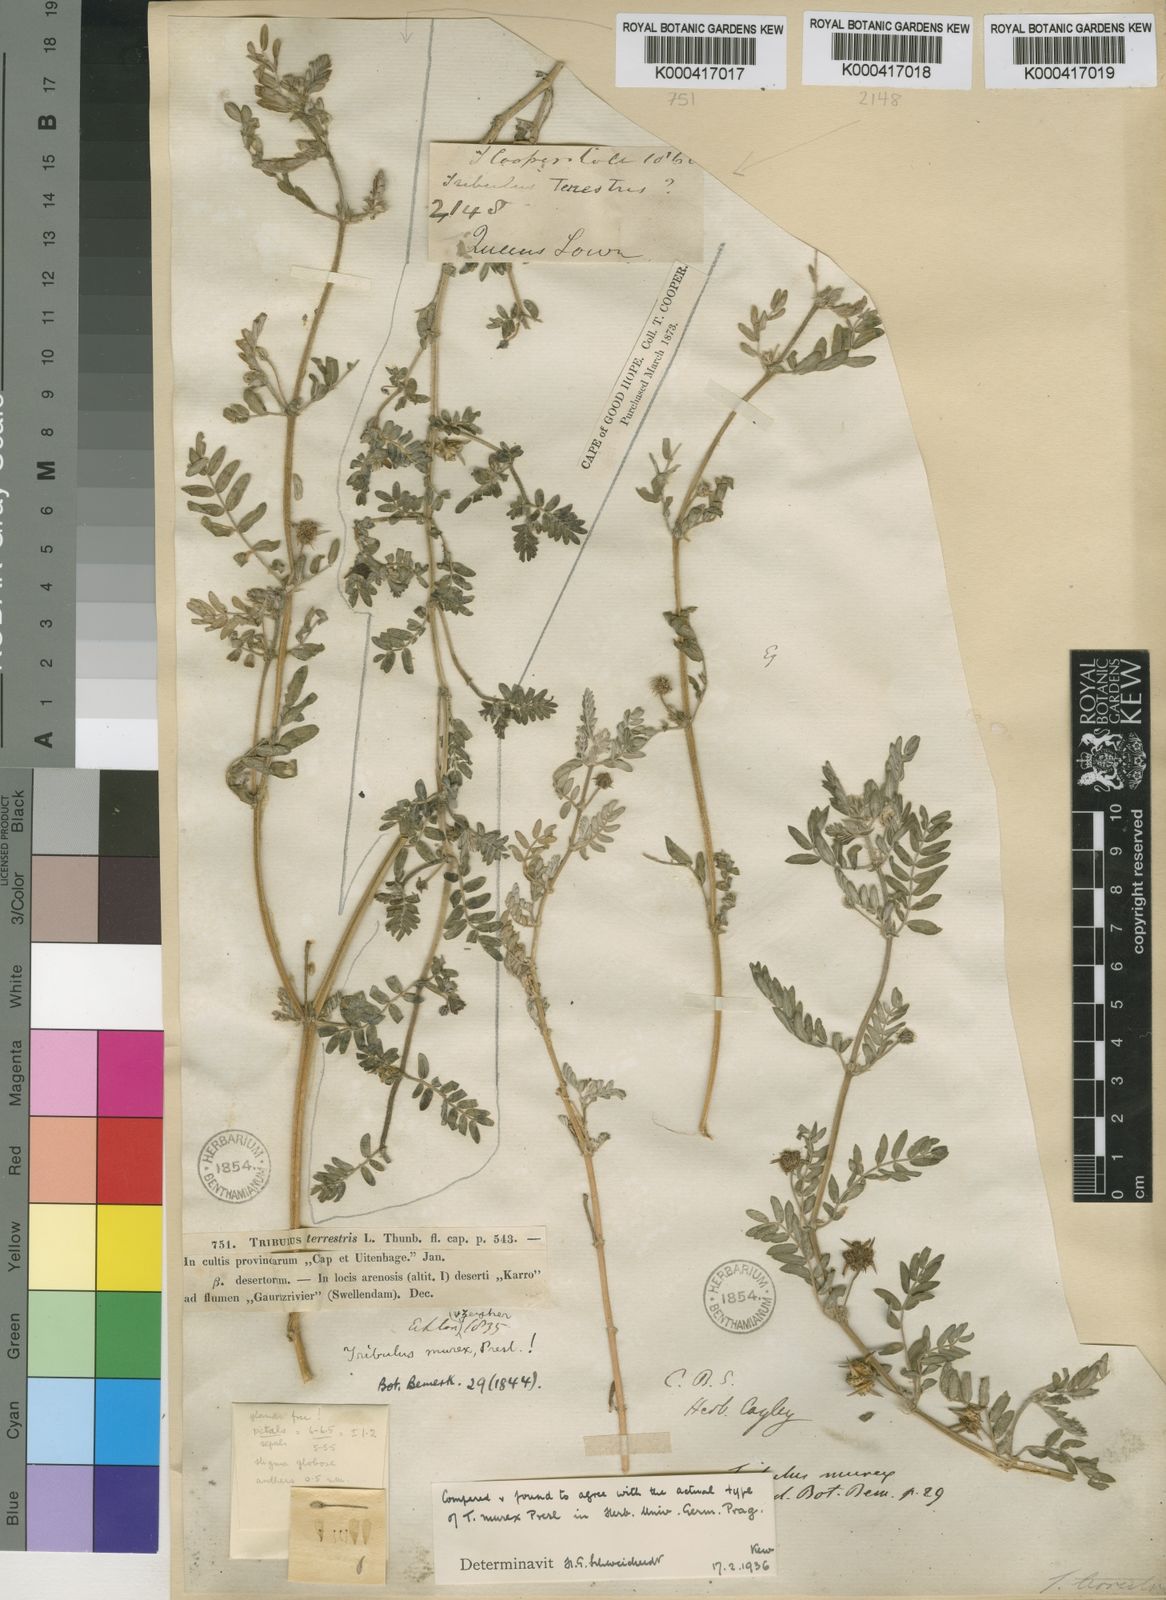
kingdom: Plantae
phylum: Tracheophyta
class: Magnoliopsida
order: Zygophyllales
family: Zygophyllaceae
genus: Tribulus
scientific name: Tribulus terrestris
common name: Puncturevine
